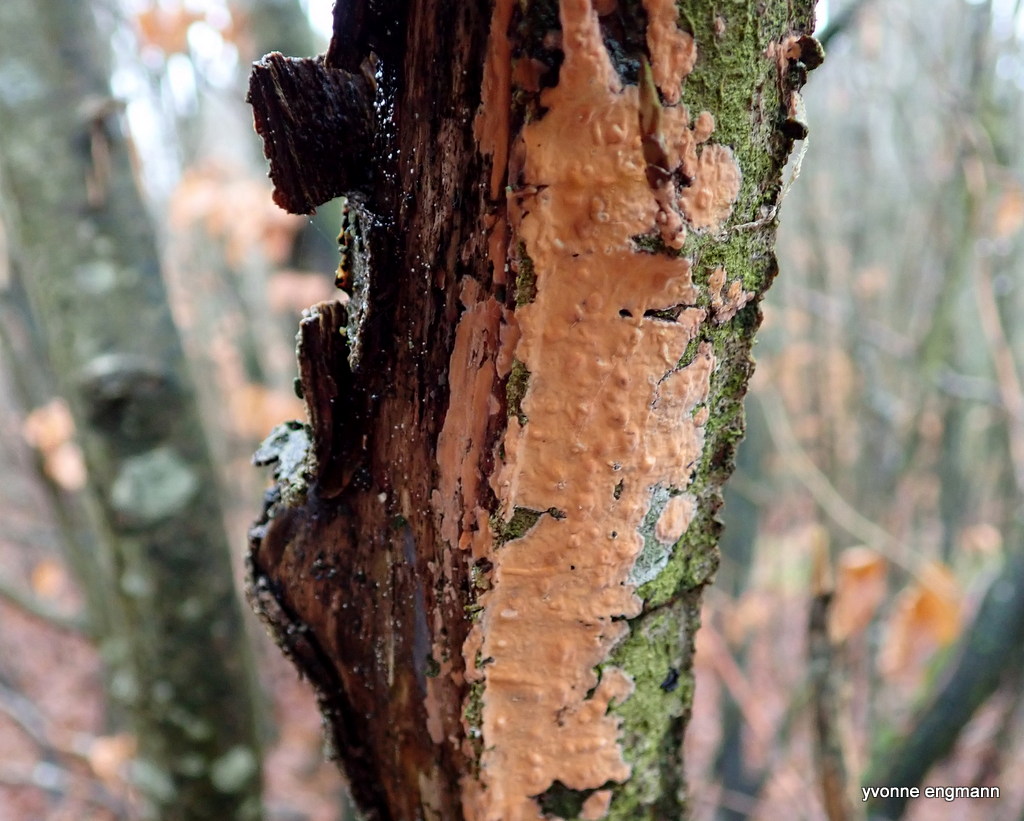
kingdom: Fungi
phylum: Basidiomycota
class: Agaricomycetes
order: Russulales
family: Peniophoraceae
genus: Peniophora
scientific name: Peniophora incarnata
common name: laksefarvet voksskind
